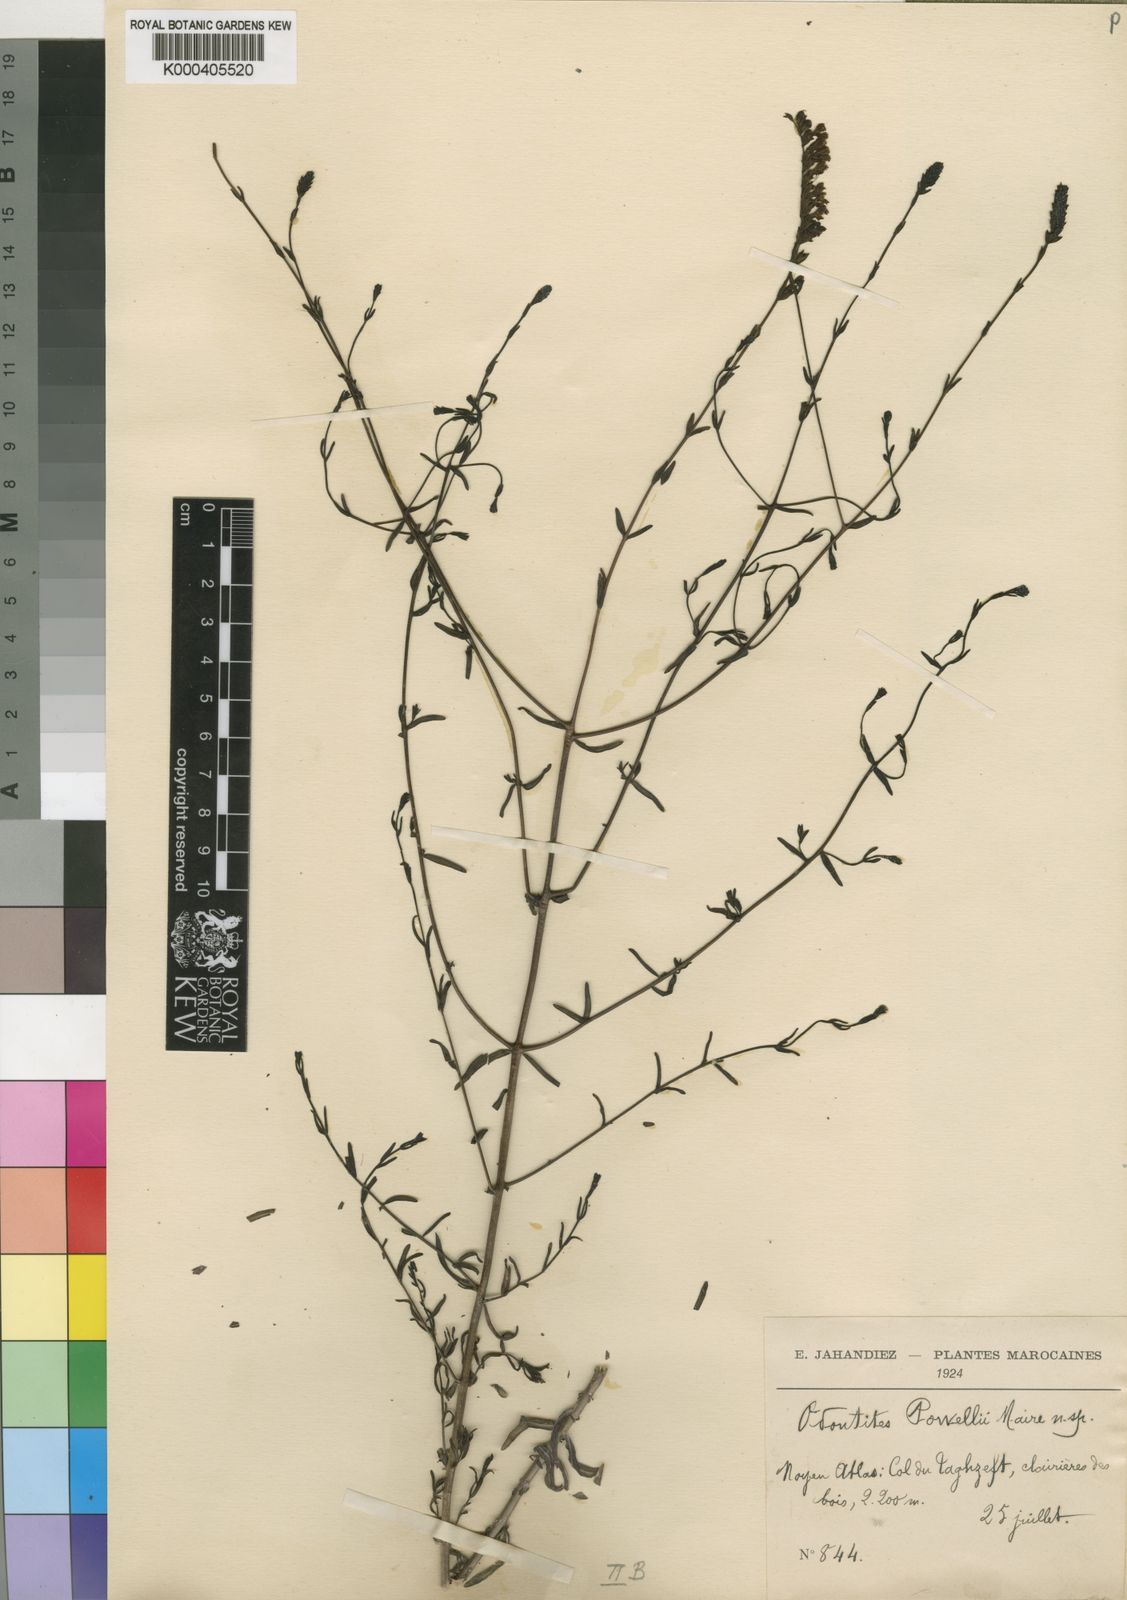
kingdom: Plantae
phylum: Tracheophyta
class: Magnoliopsida
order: Lamiales
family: Orobanchaceae
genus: Odontites
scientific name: Odontites powellii
